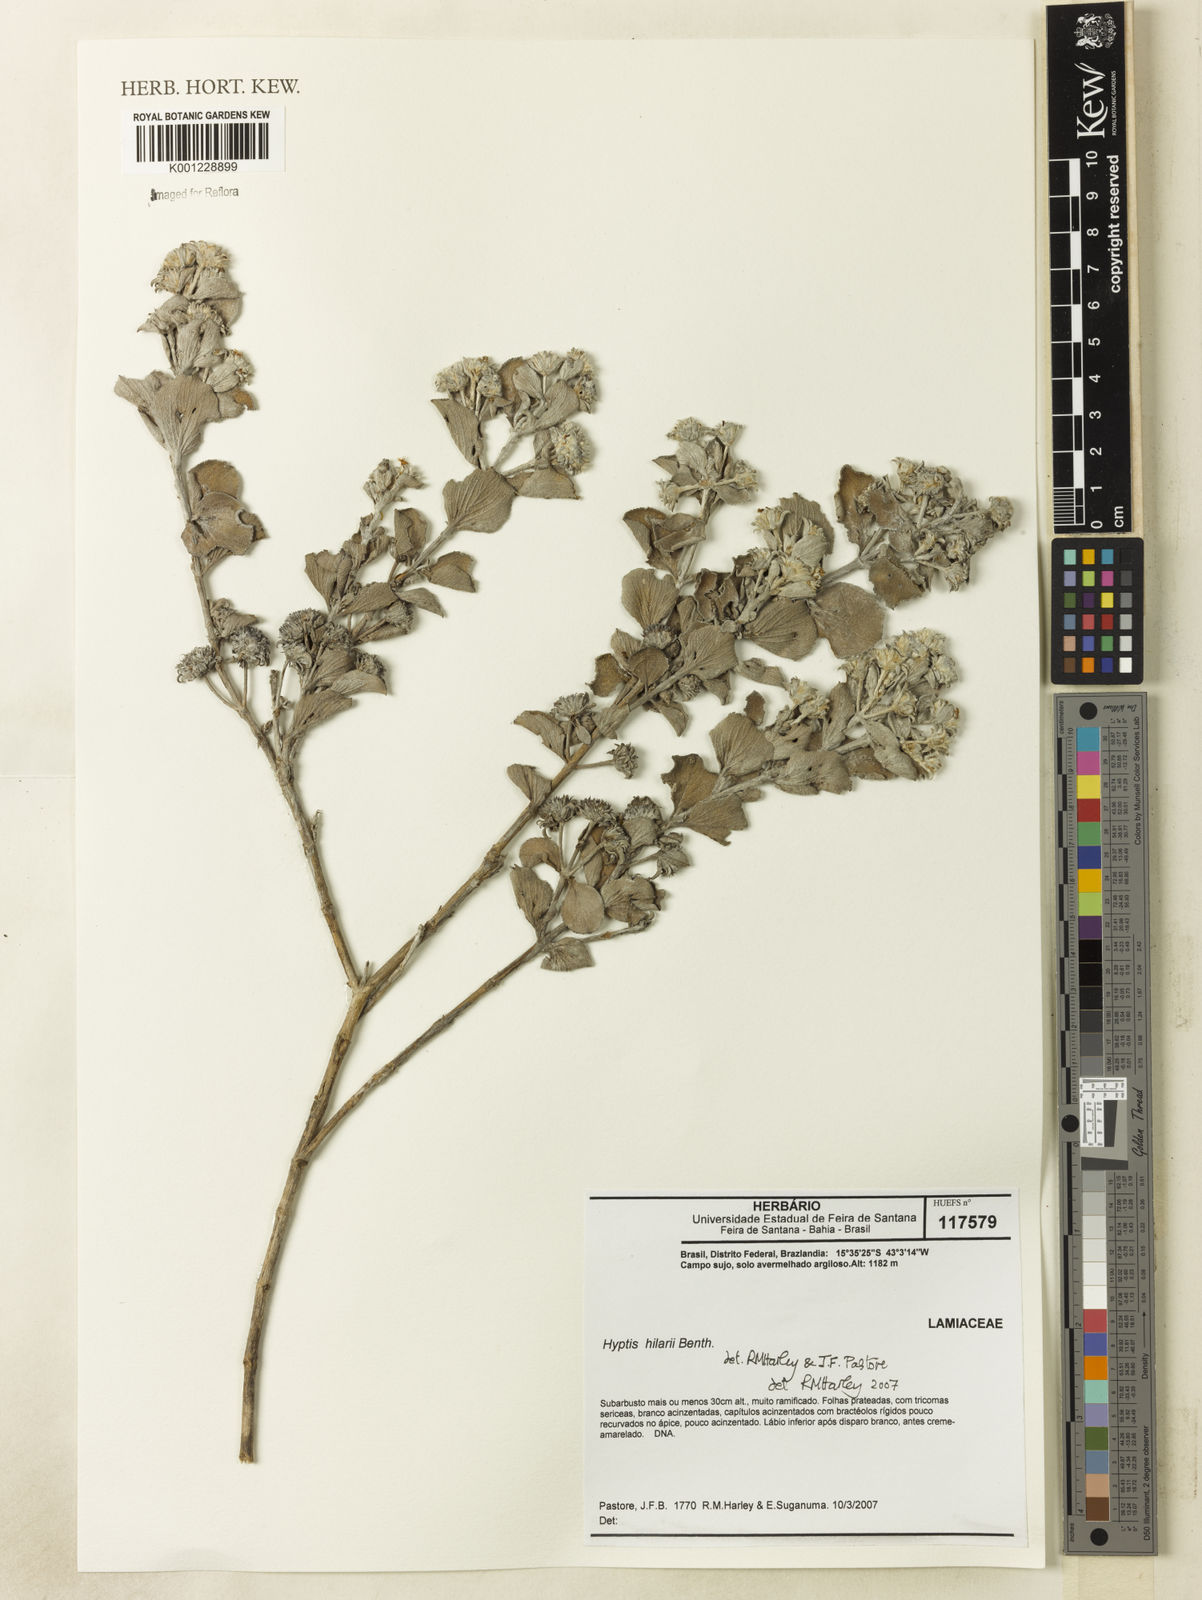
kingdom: Plantae
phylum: Tracheophyta
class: Magnoliopsida
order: Lamiales
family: Lamiaceae
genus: Hyptis
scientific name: Hyptis hilarii
